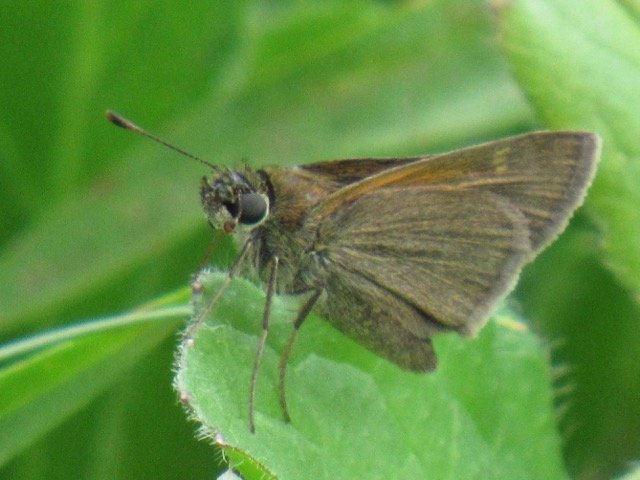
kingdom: Animalia
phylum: Arthropoda
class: Insecta
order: Lepidoptera
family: Hesperiidae
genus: Polites
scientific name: Polites themistocles
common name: Tawny-edged Skipper
